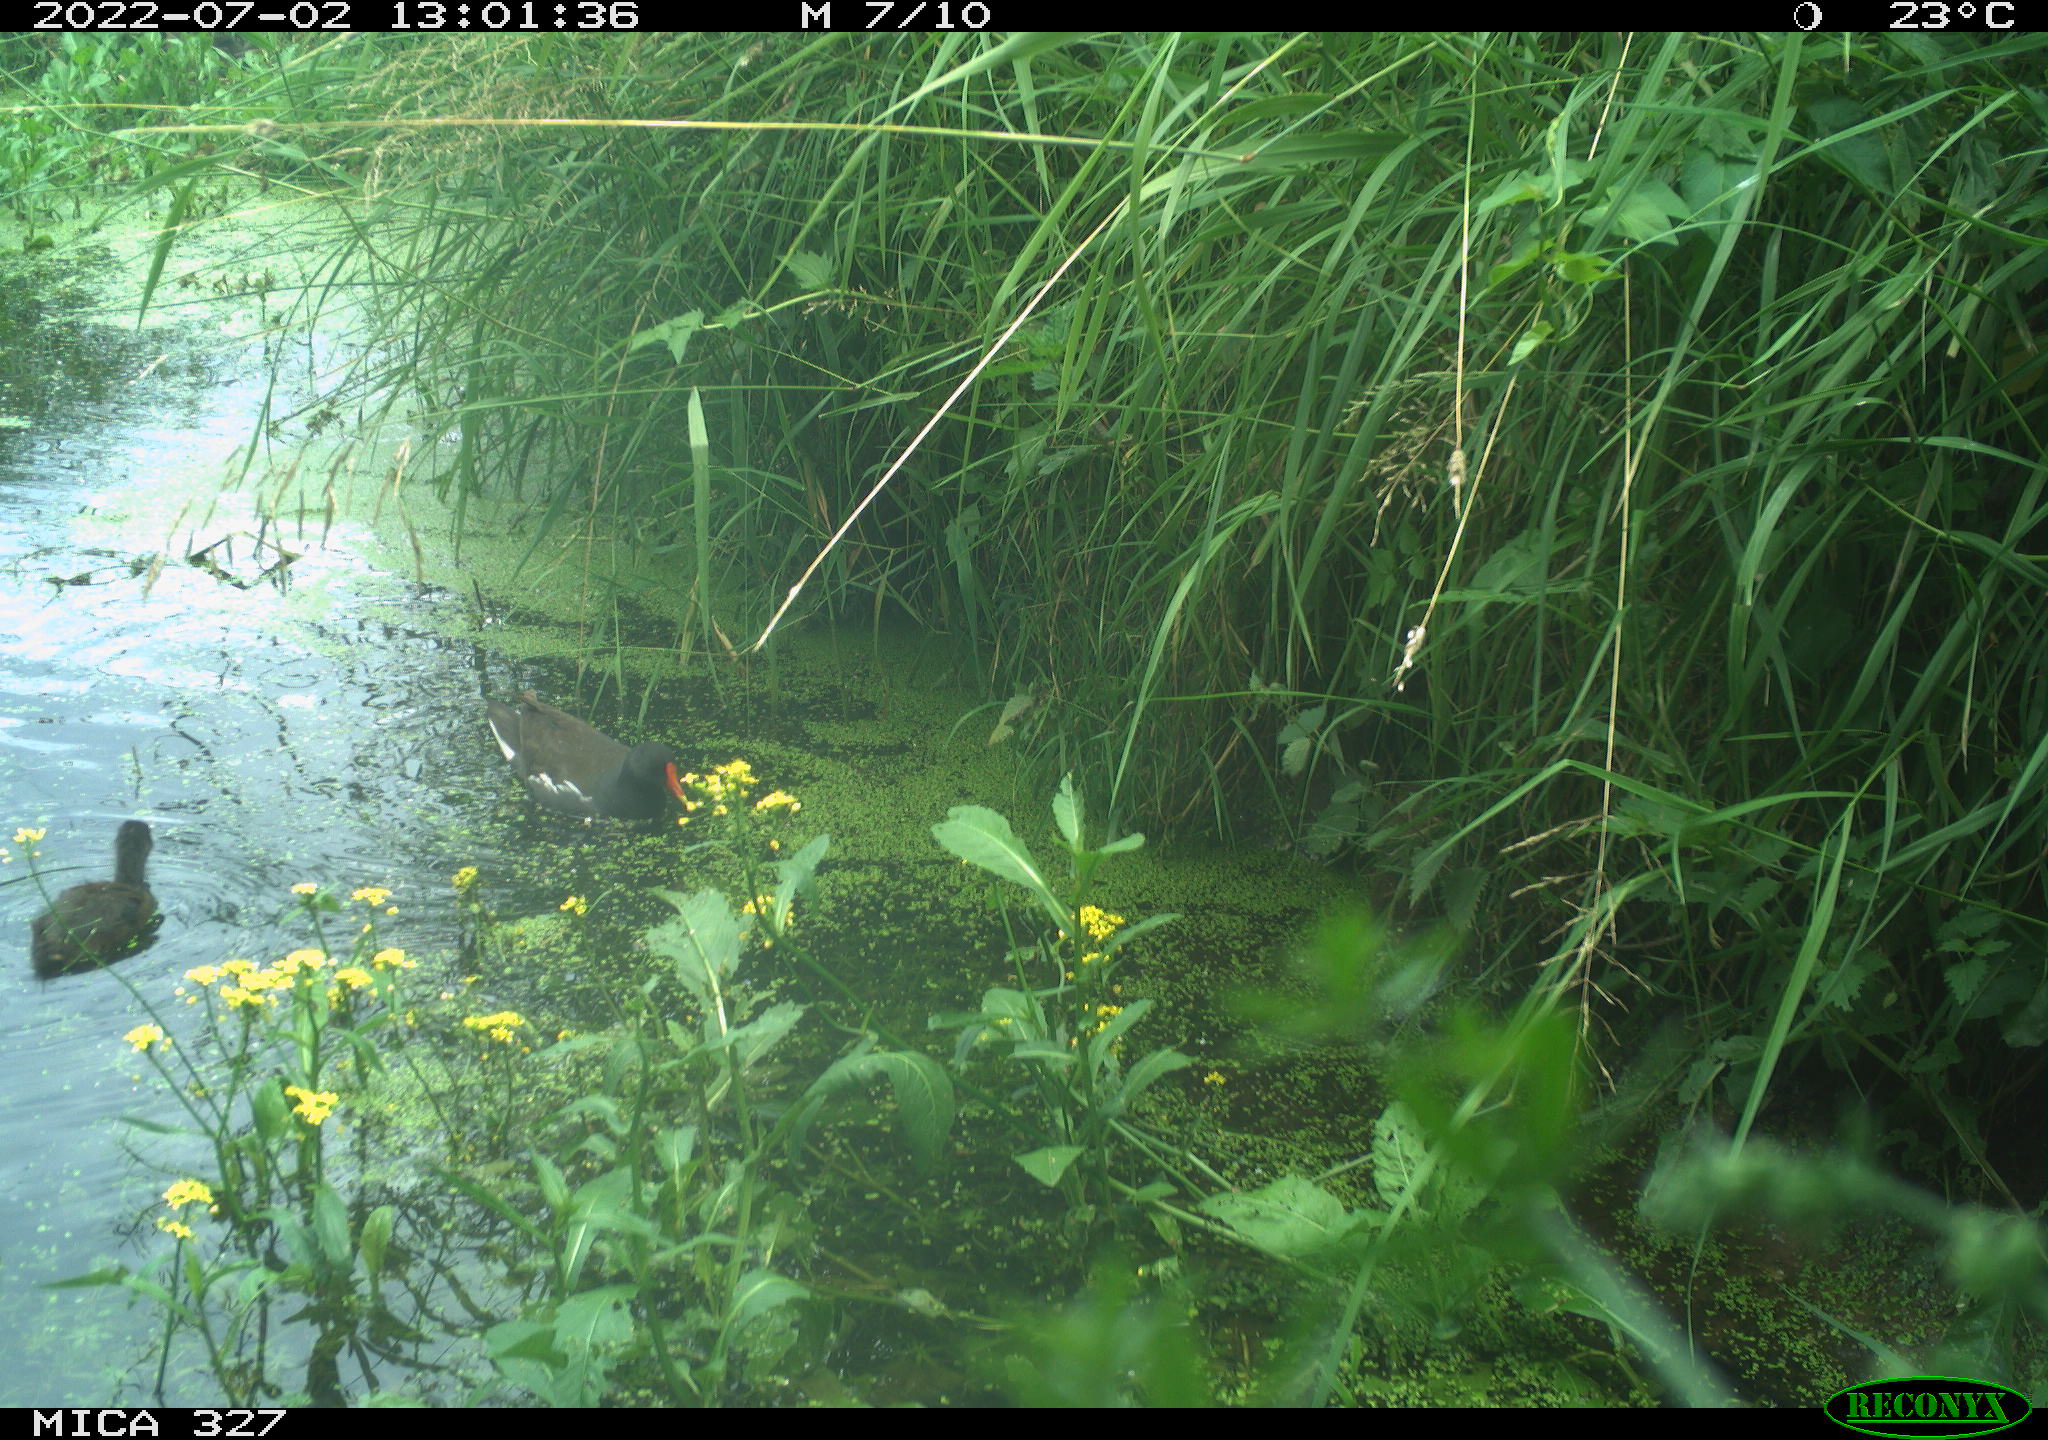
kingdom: Animalia
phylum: Chordata
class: Aves
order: Gruiformes
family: Rallidae
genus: Gallinula
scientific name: Gallinula chloropus
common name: Common moorhen
